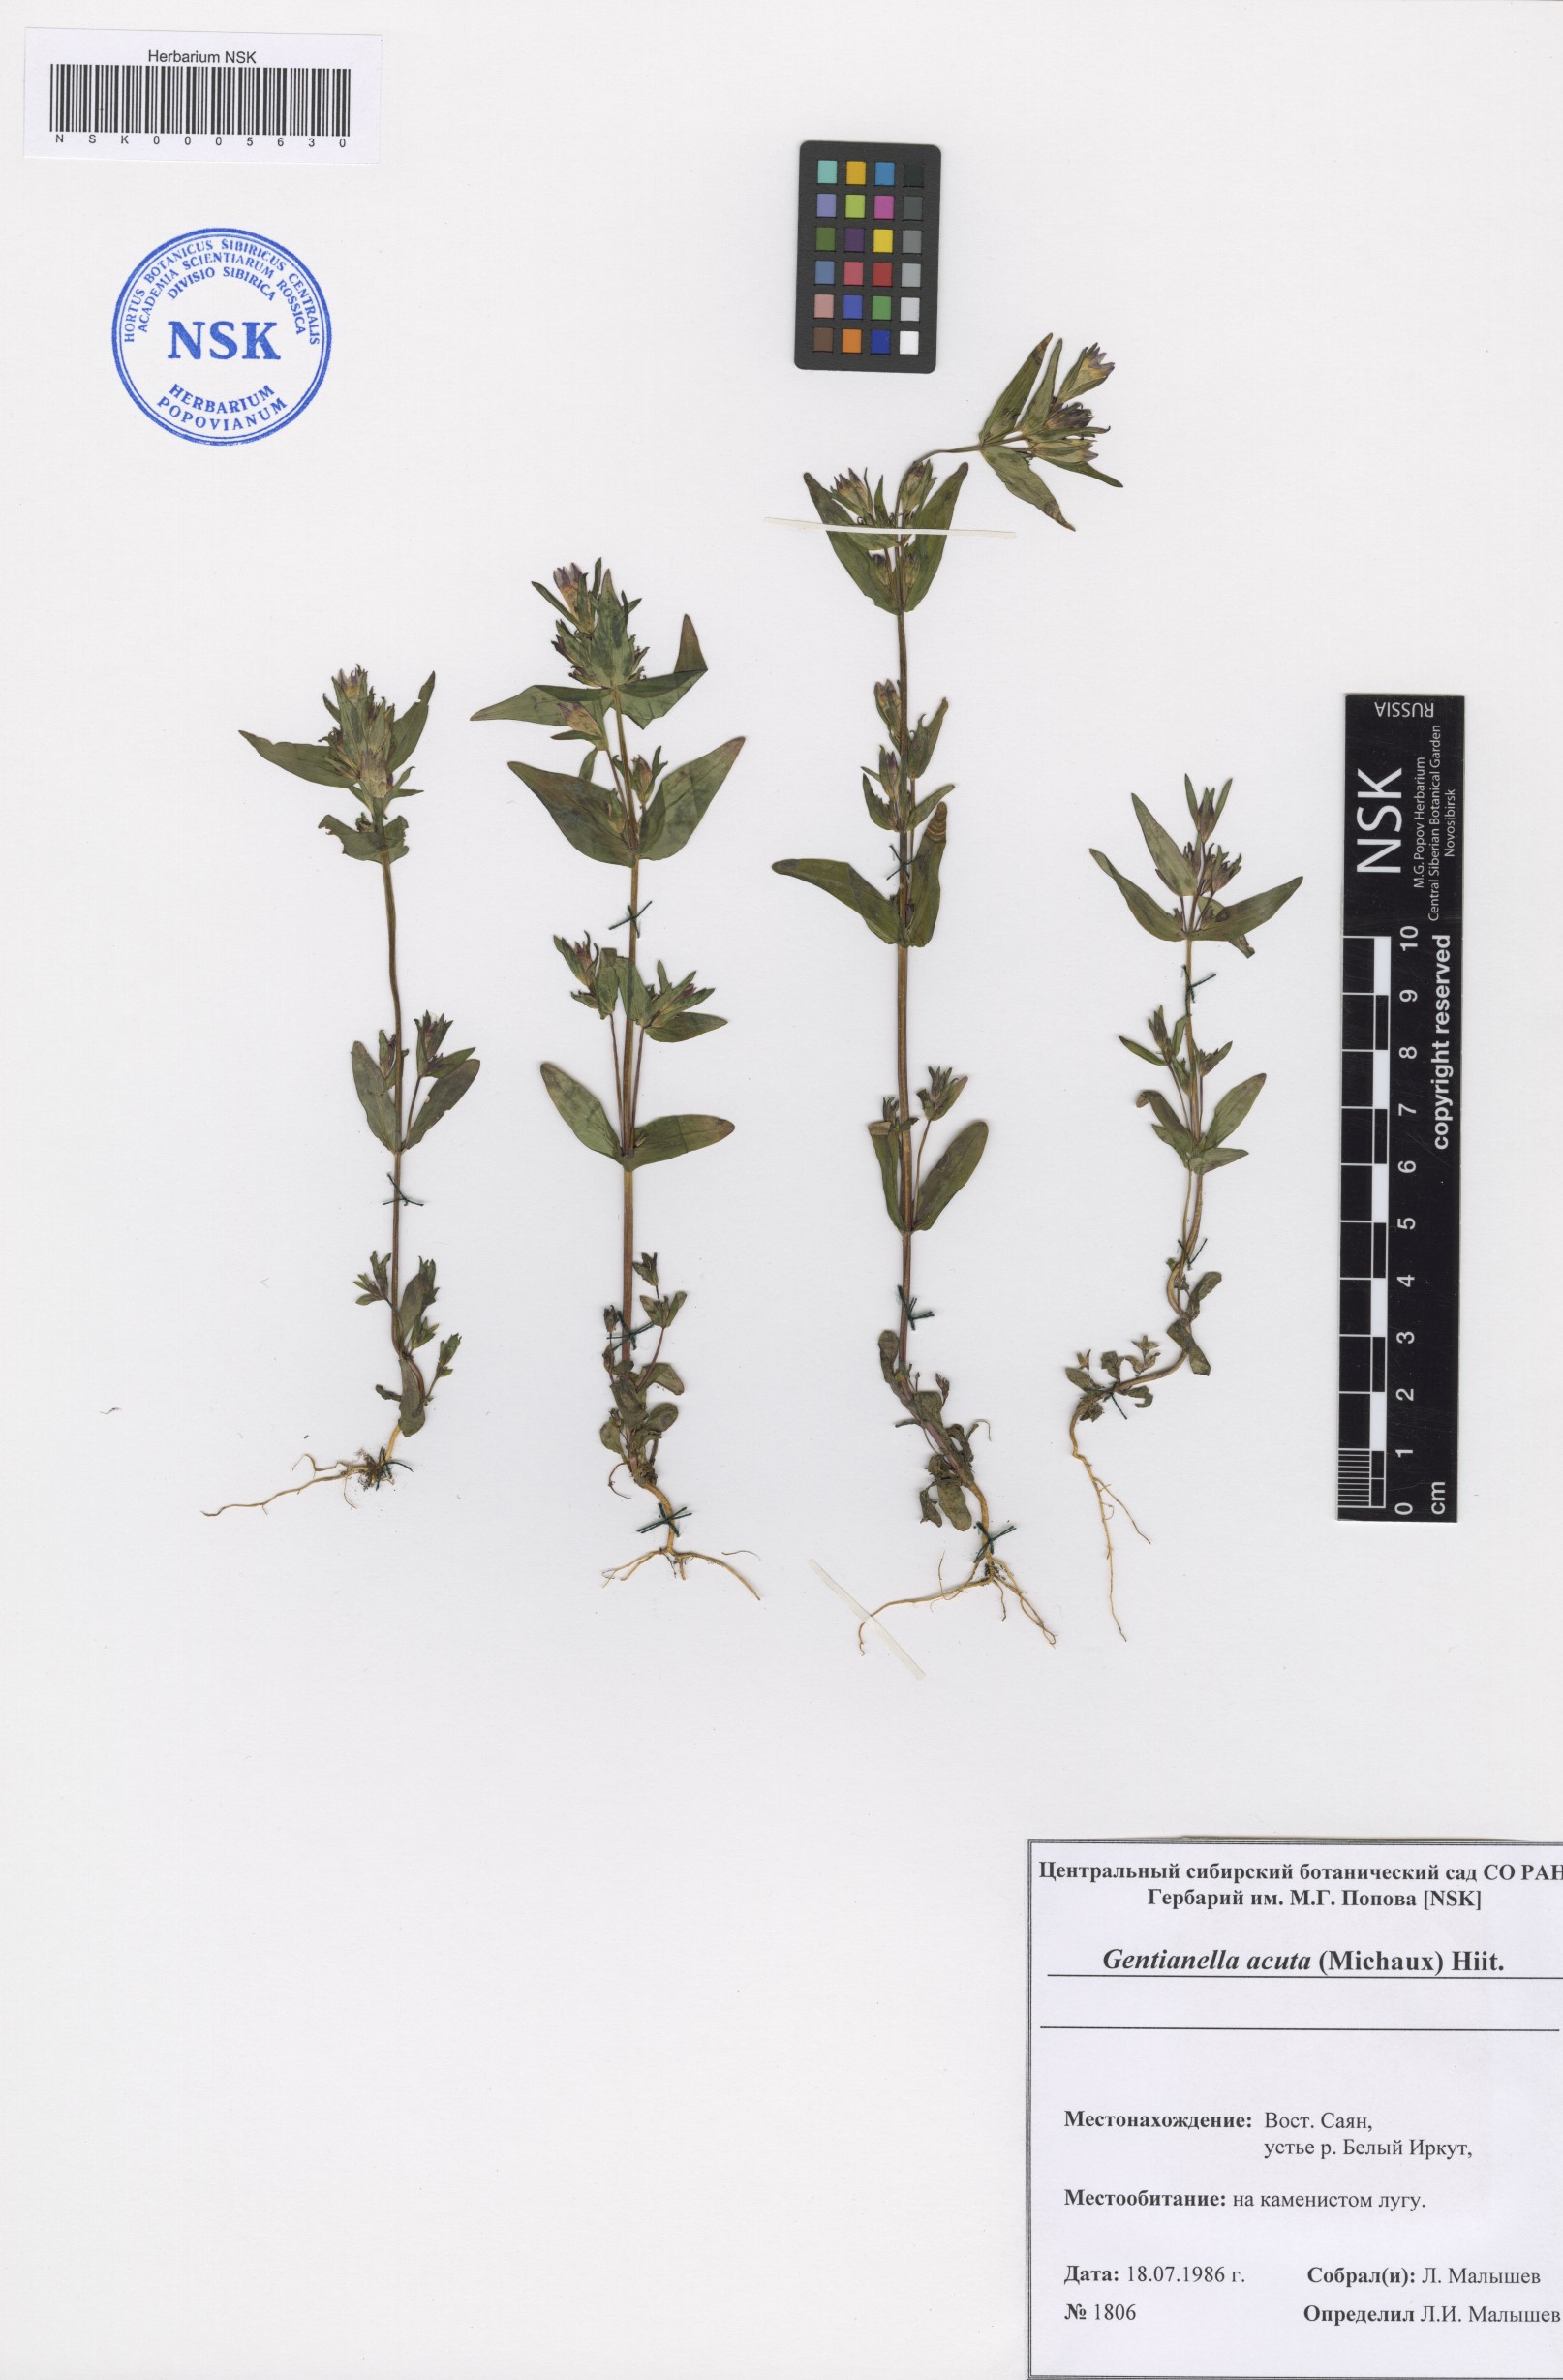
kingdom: Plantae
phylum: Tracheophyta
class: Magnoliopsida
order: Gentianales
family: Gentianaceae
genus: Gentianella
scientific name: Gentianella amarella
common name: Autumn gentian
